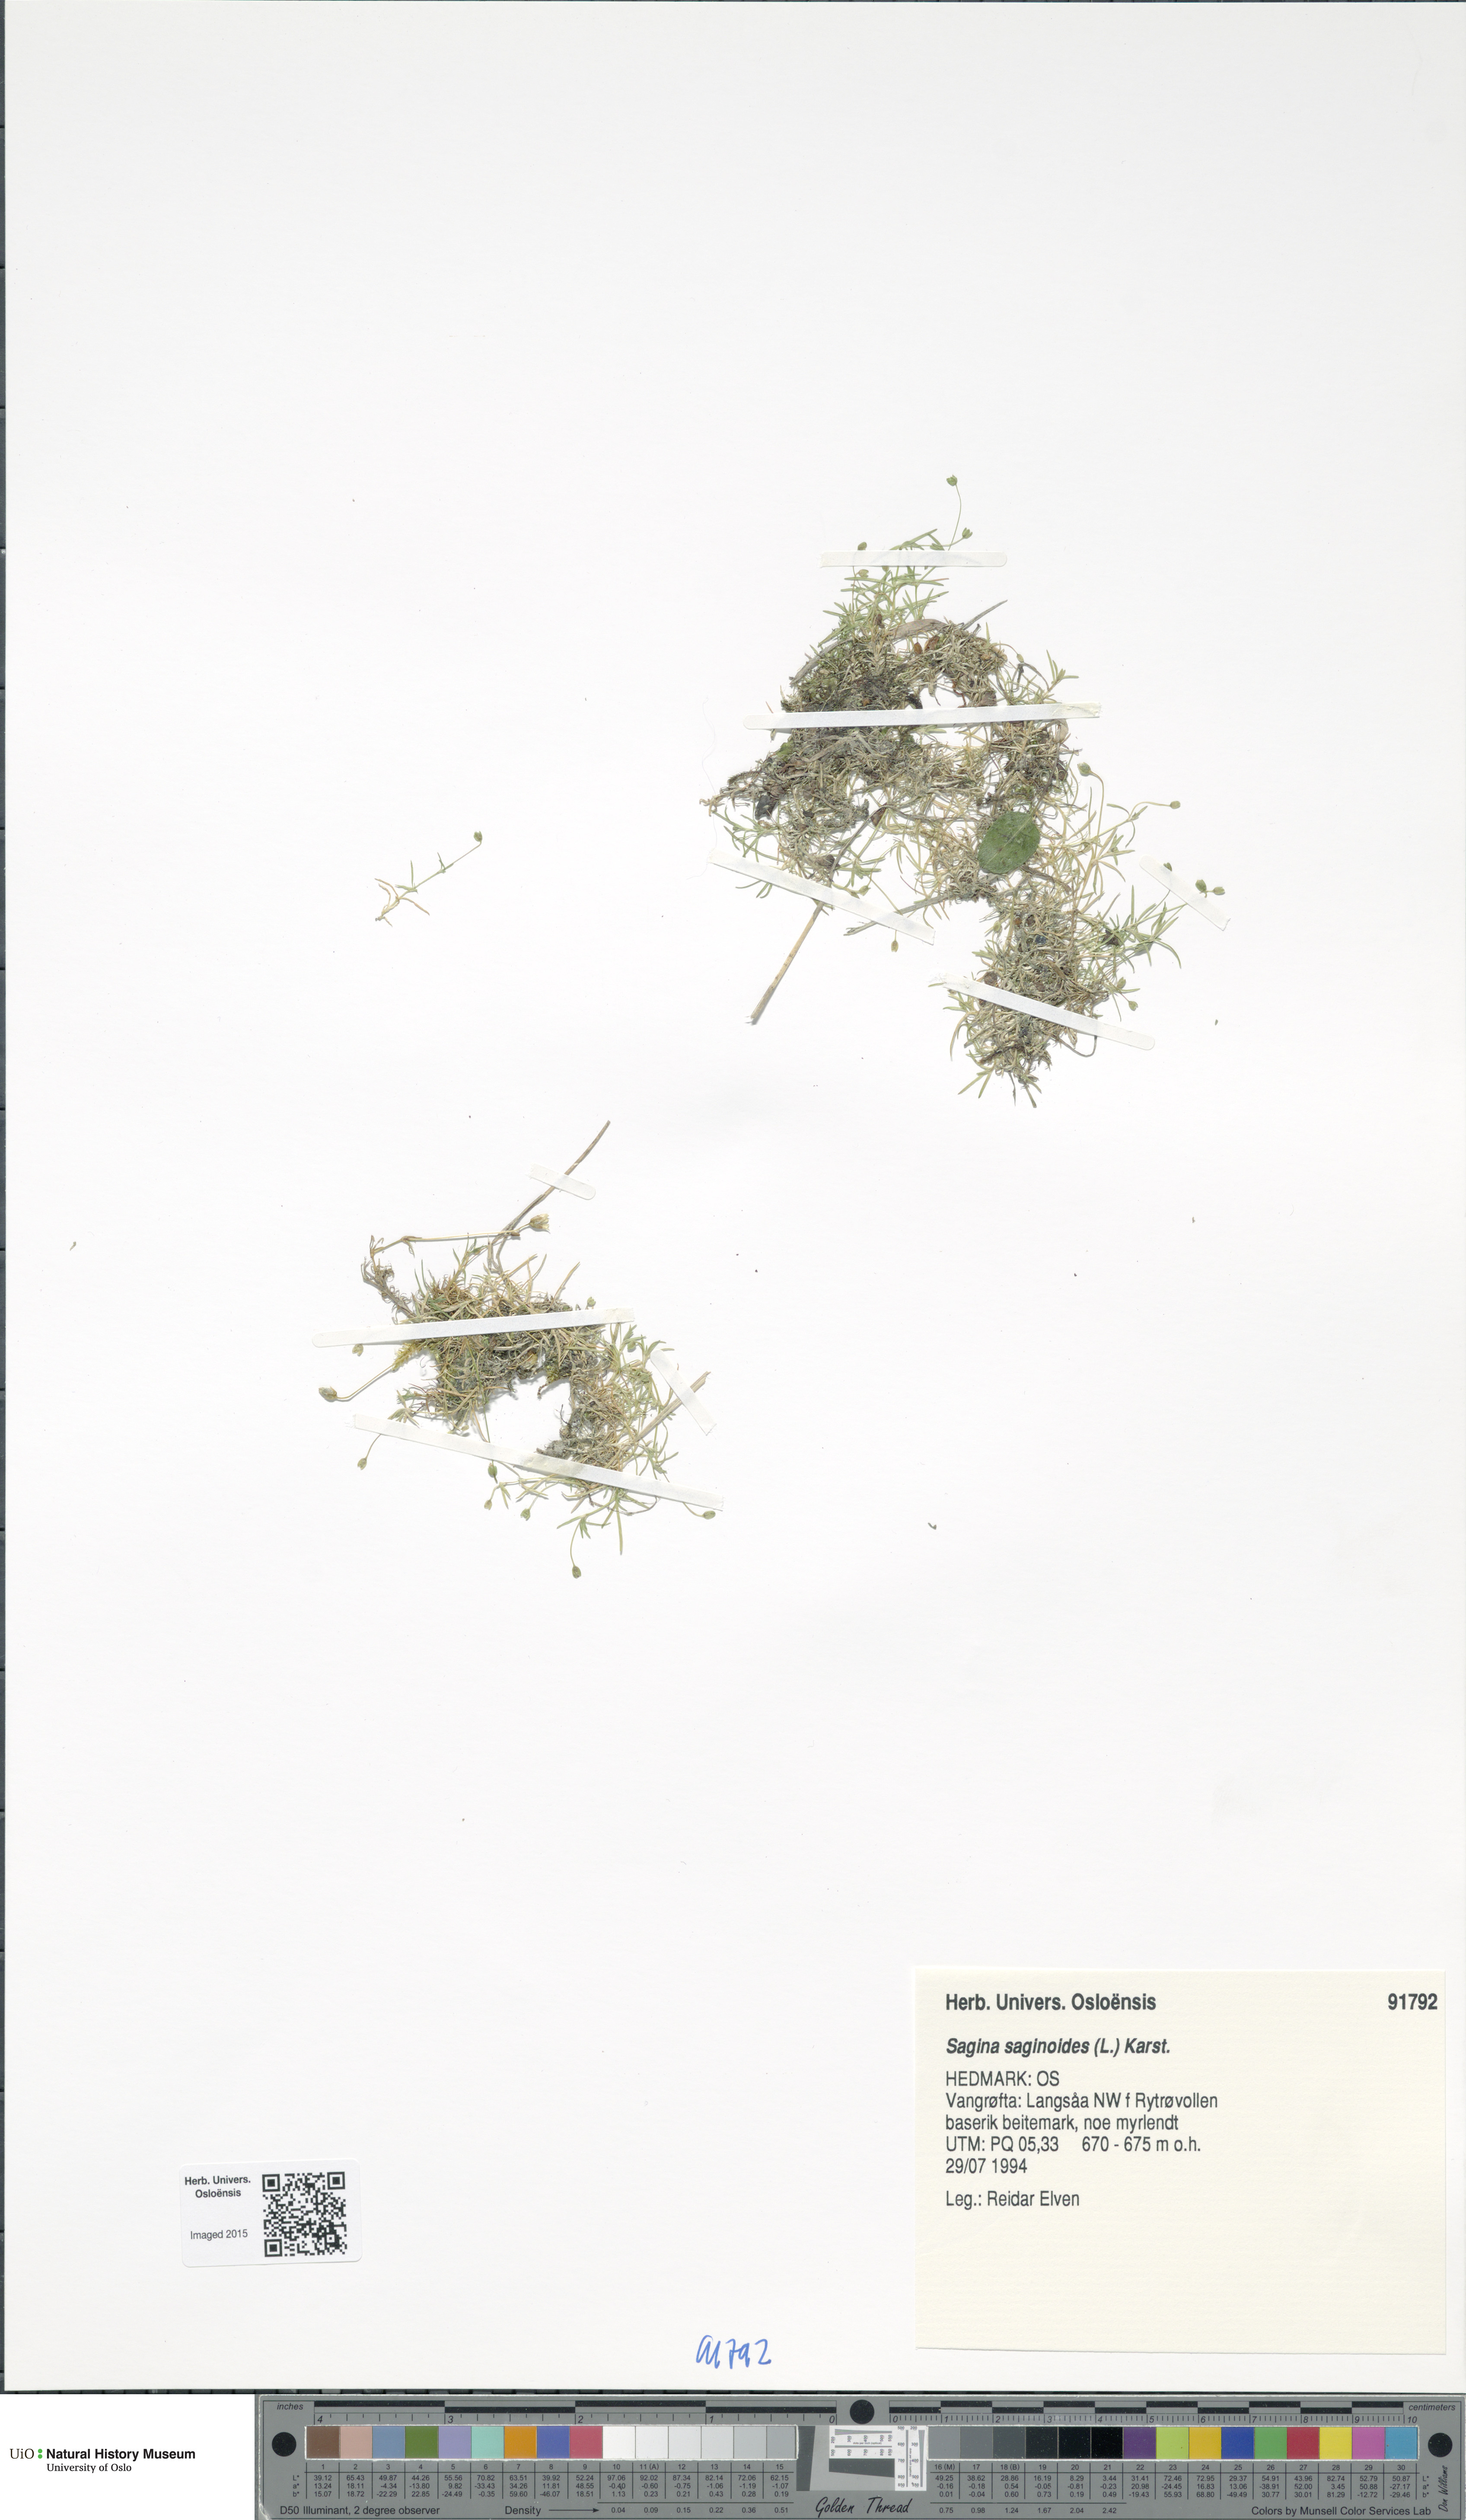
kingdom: Plantae
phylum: Tracheophyta
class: Magnoliopsida
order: Caryophyllales
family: Caryophyllaceae
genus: Sagina
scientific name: Sagina saginoides
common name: Alpine pearlwort
